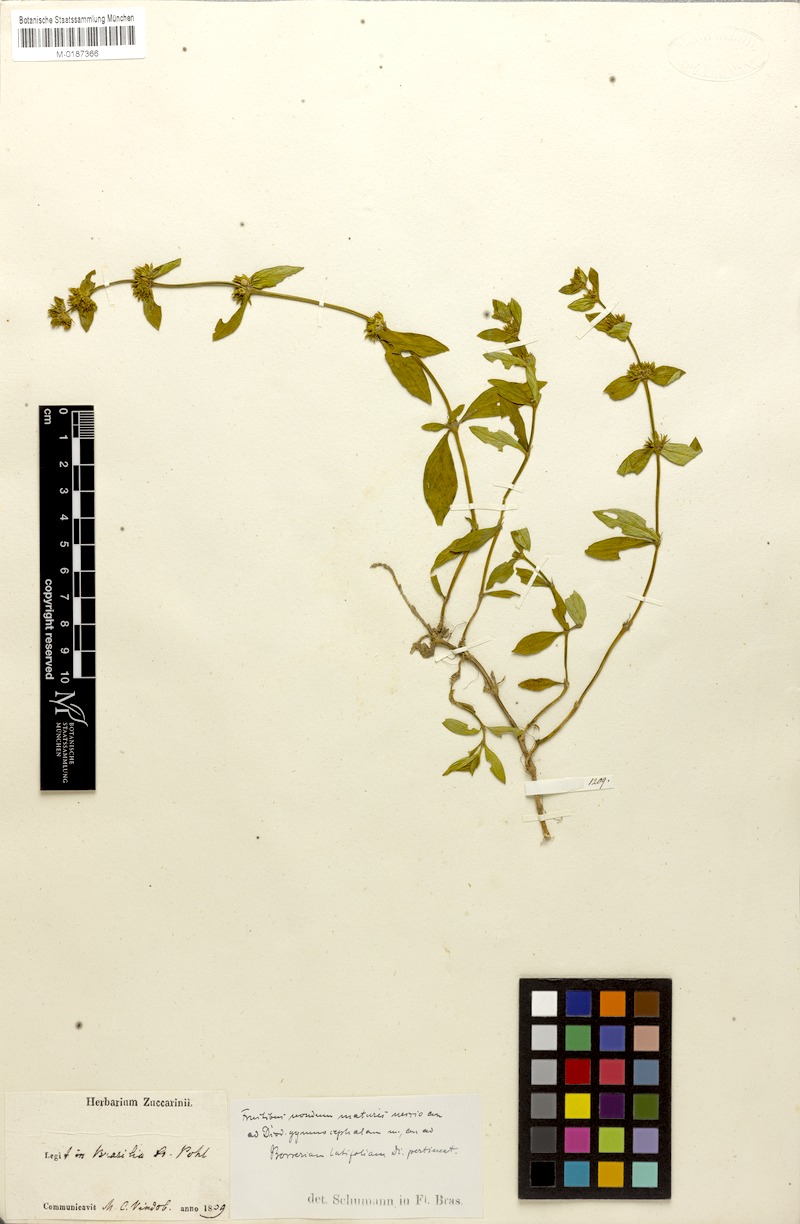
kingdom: Plantae
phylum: Tracheophyta
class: Magnoliopsida
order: Gentianales
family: Rubiaceae
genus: Galianthe
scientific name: Galianthe palustris
